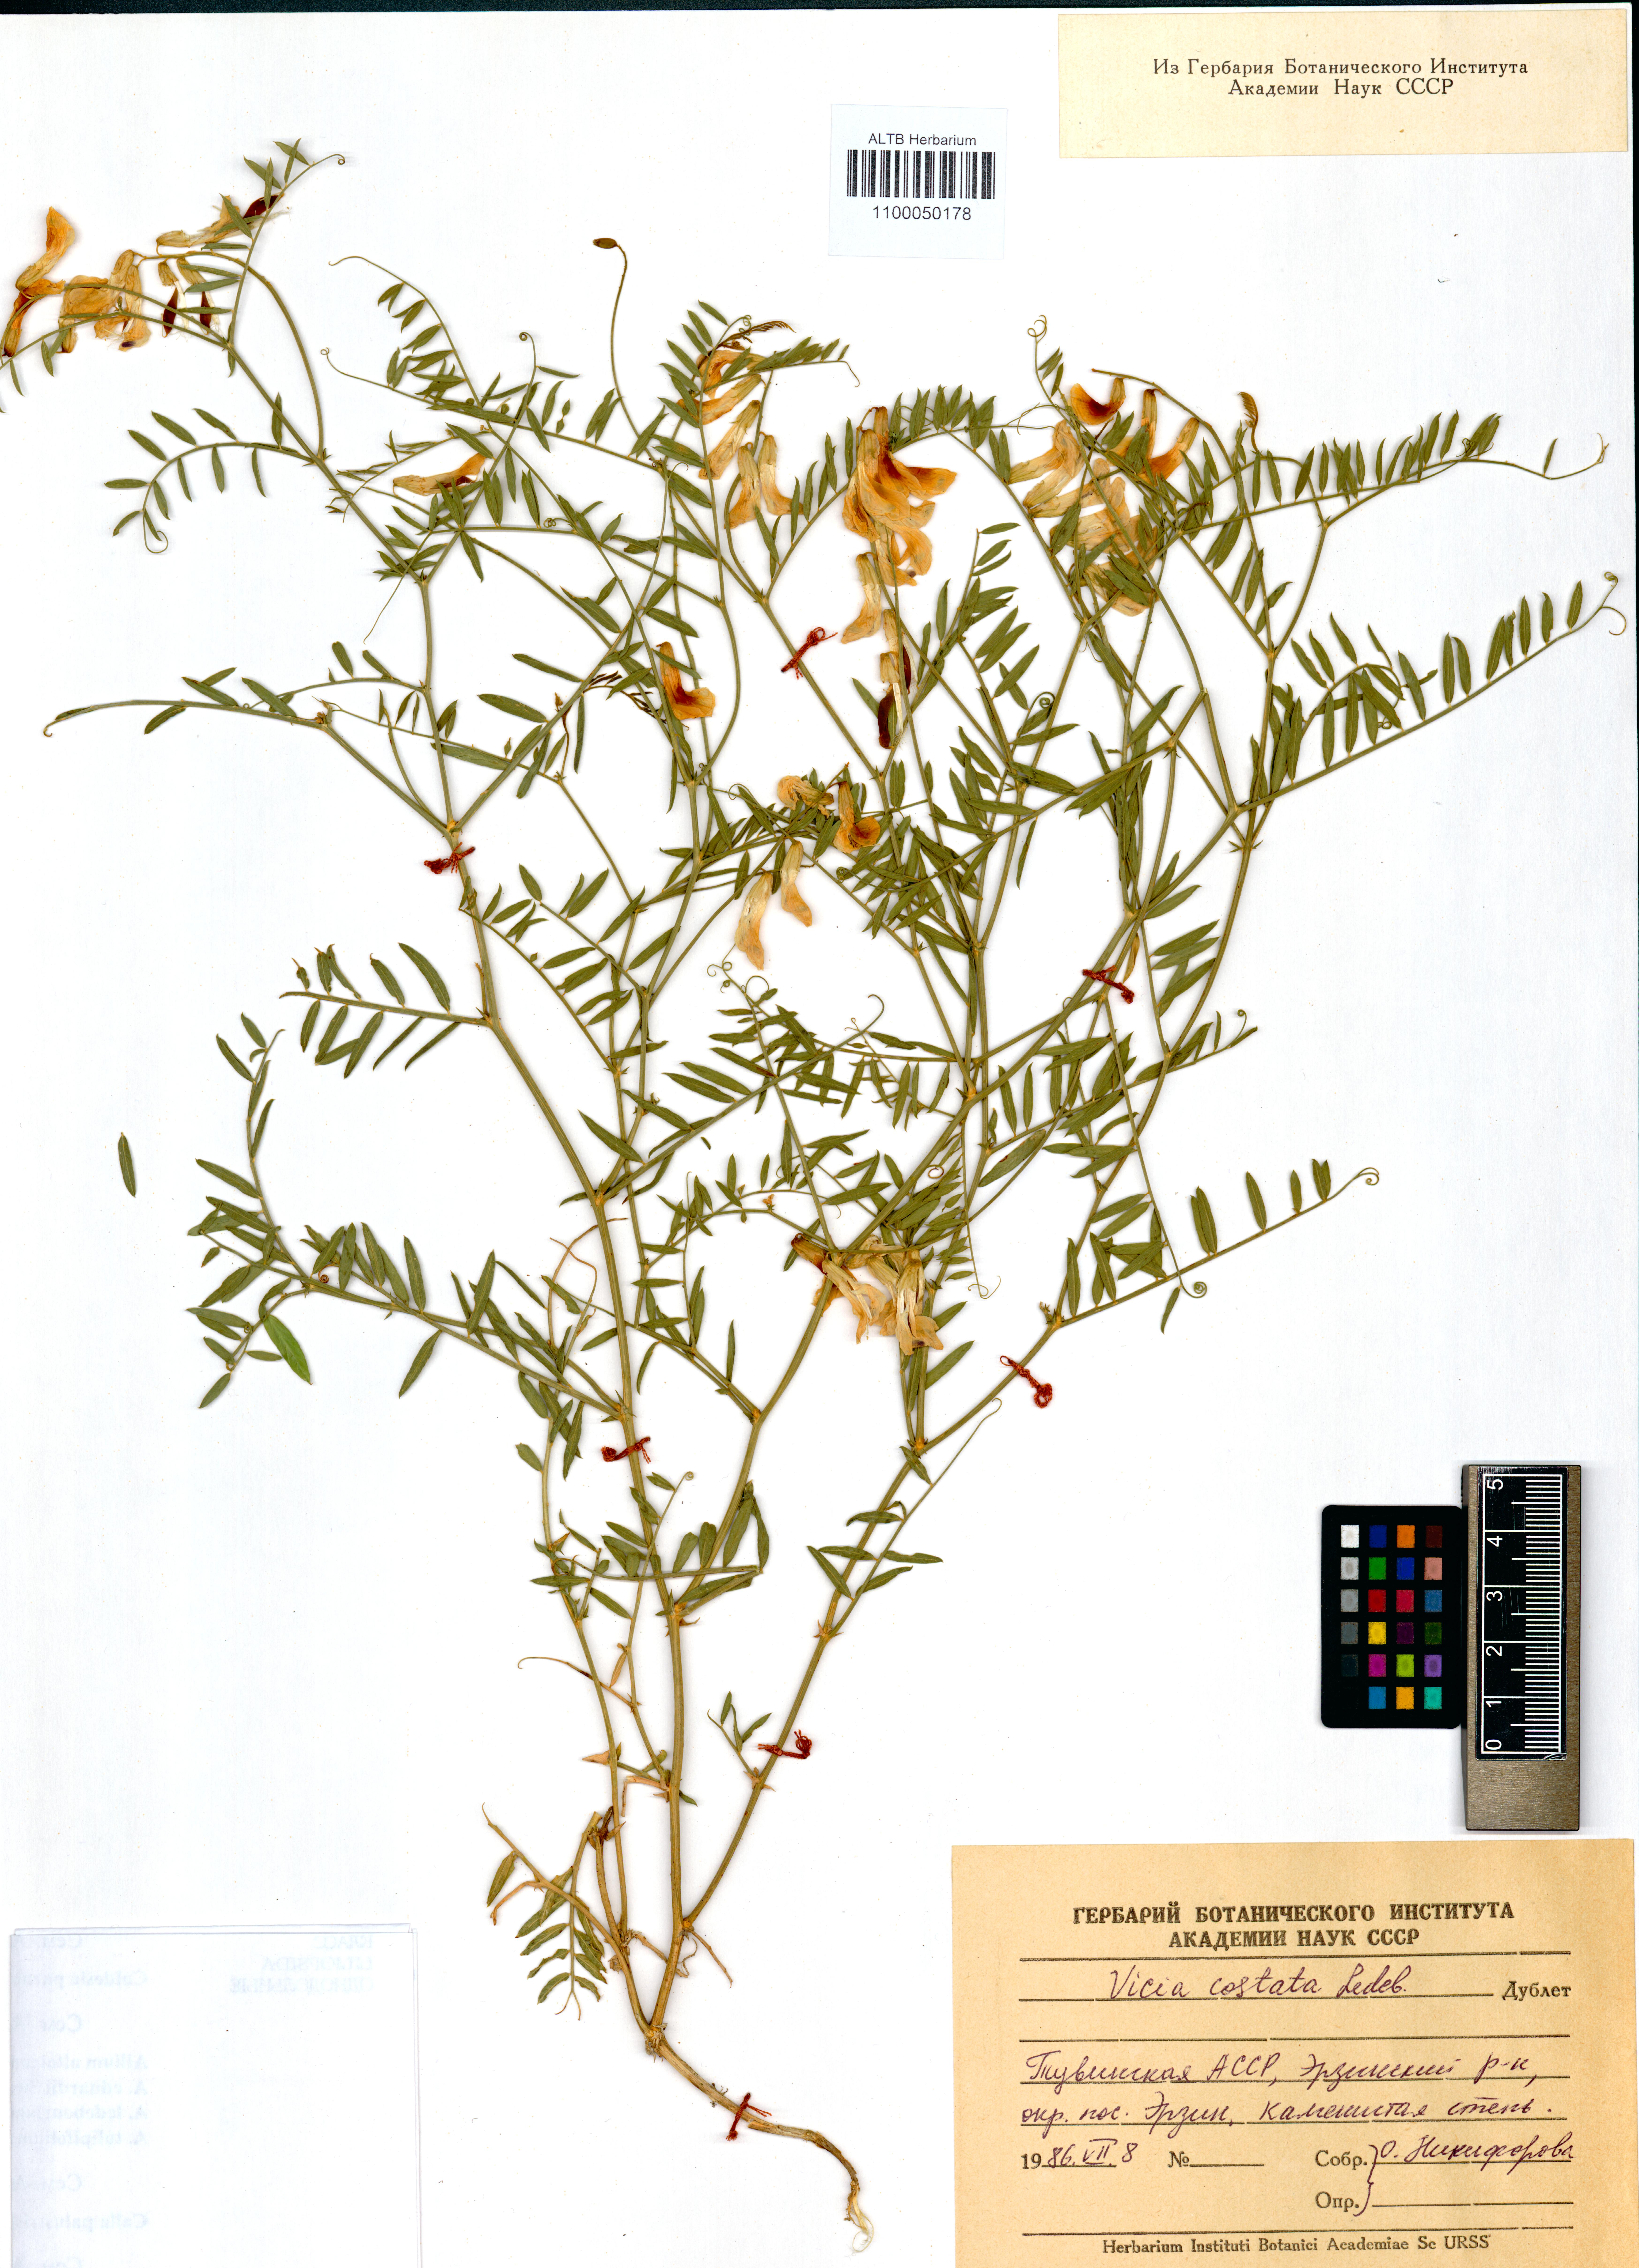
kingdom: Plantae
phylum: Tracheophyta
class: Magnoliopsida
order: Fabales
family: Fabaceae
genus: Vicia
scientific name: Vicia costata
